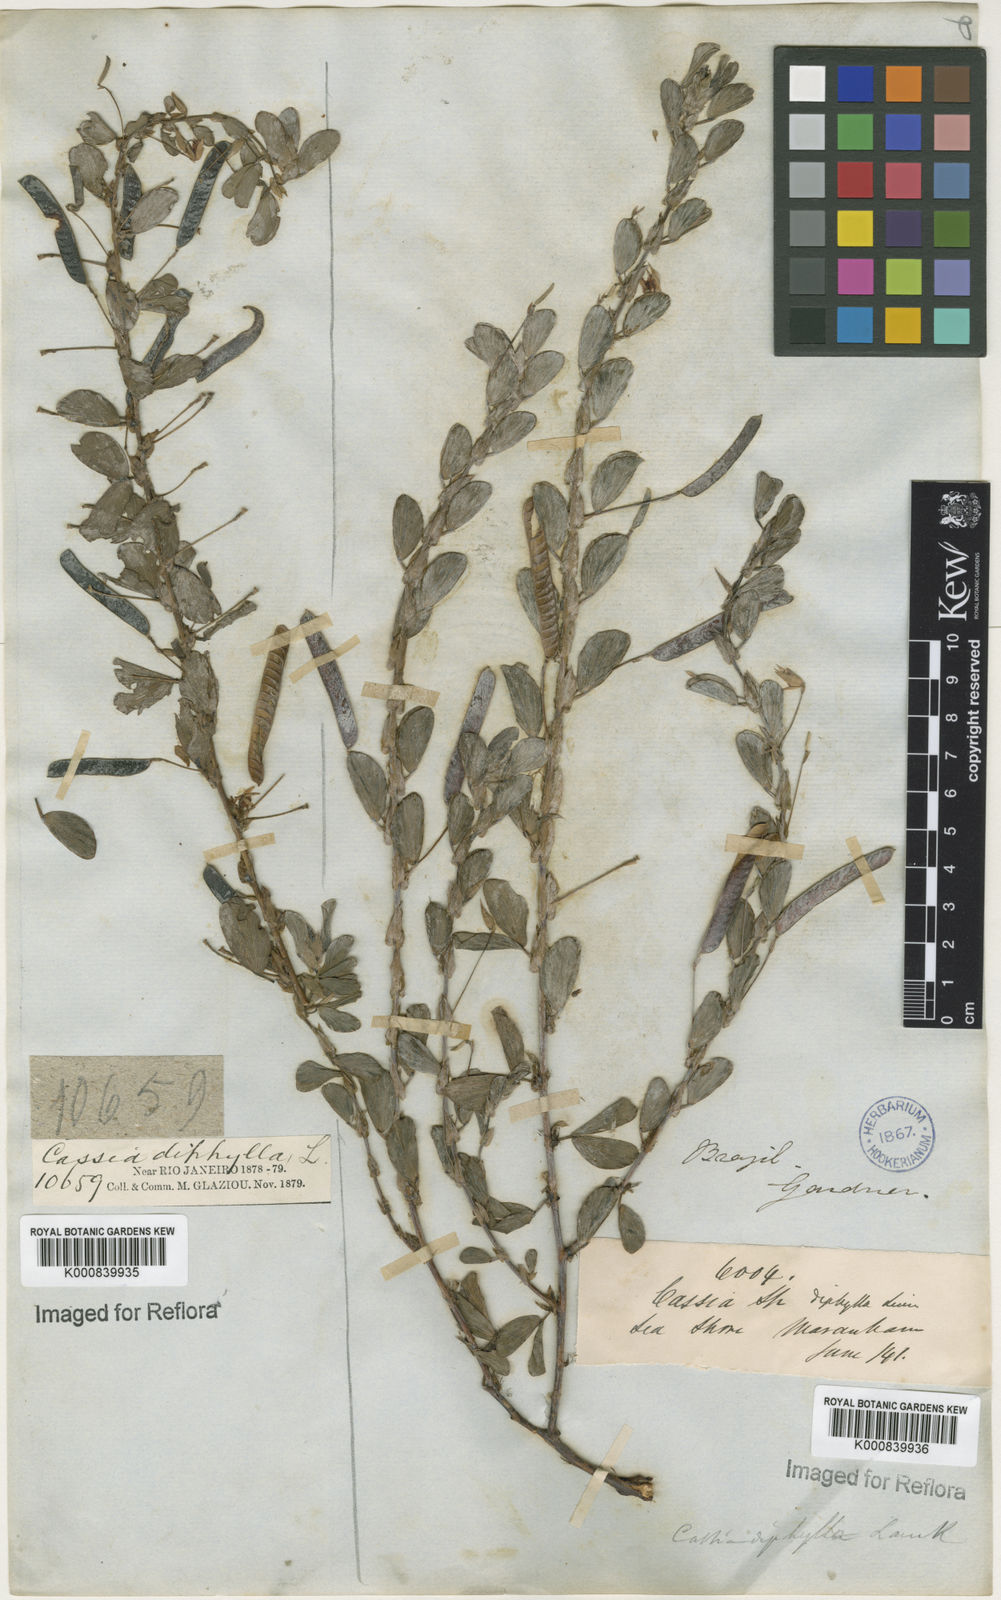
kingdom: Plantae
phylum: Tracheophyta
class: Magnoliopsida
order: Fabales
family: Fabaceae
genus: Chamaecrista
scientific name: Chamaecrista diphylla
